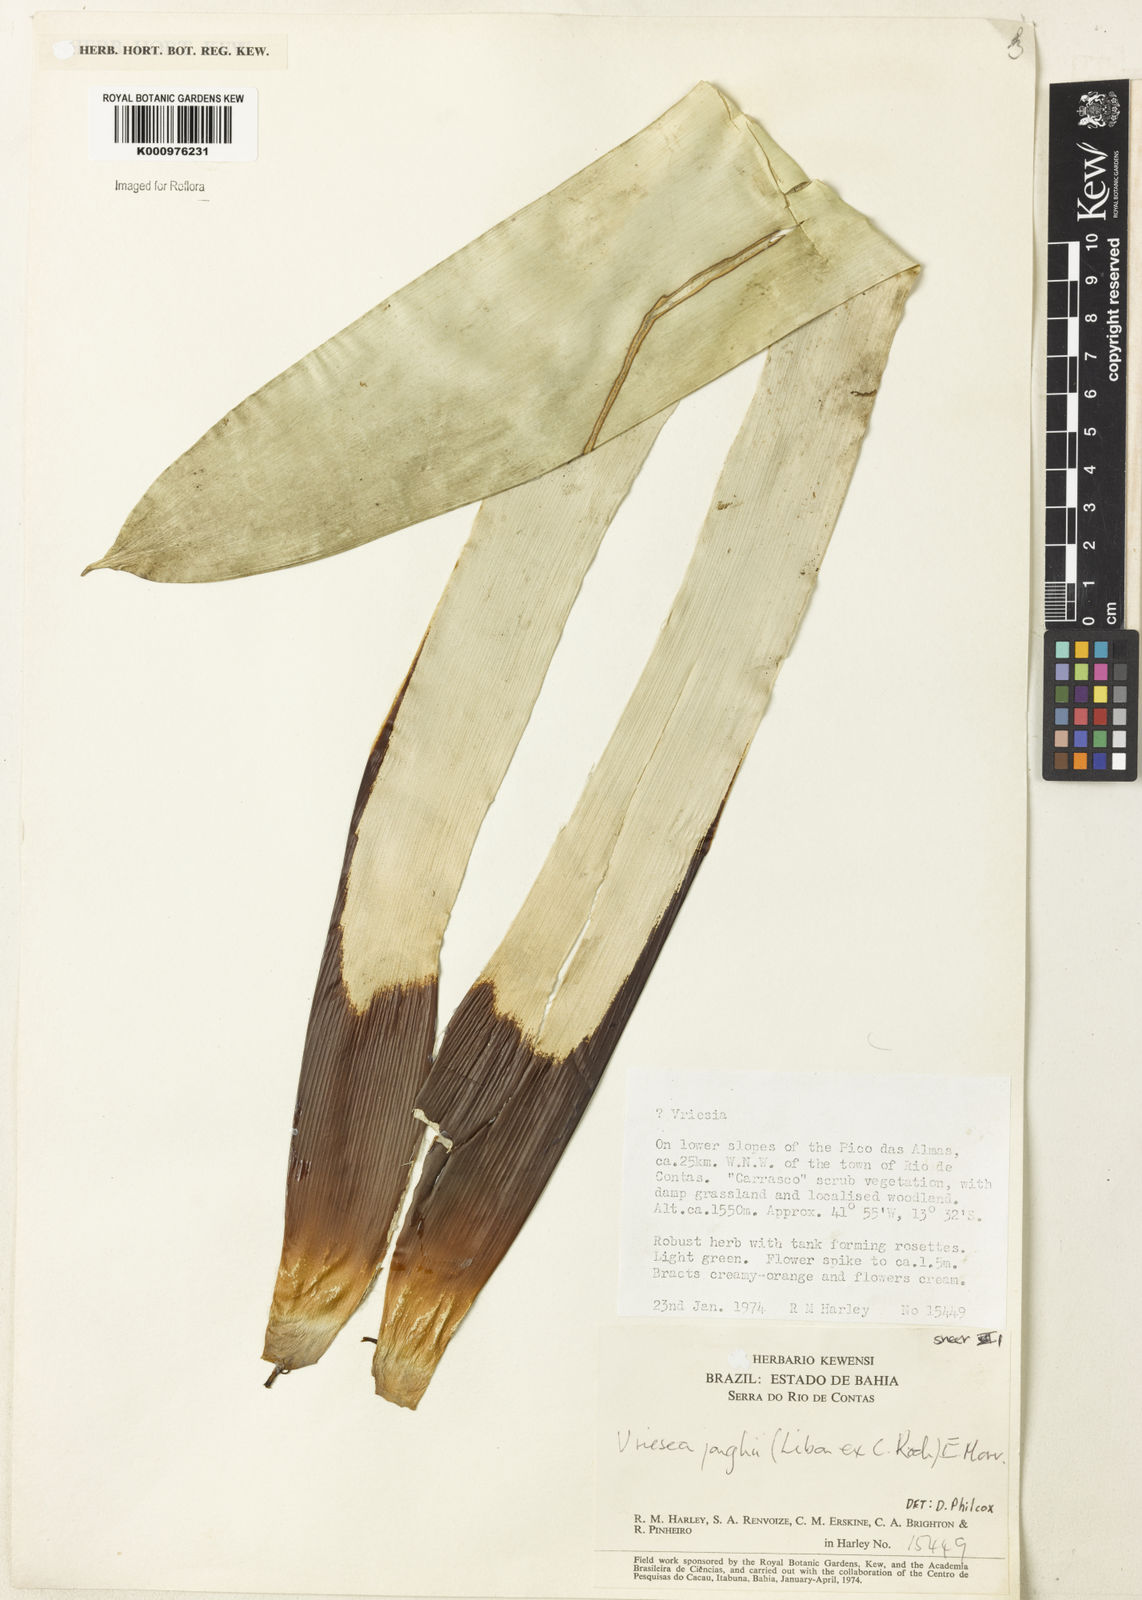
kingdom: Plantae
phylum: Tracheophyta
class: Liliopsida
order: Poales
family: Bromeliaceae
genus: Vriesea
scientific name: Vriesea jonghei
